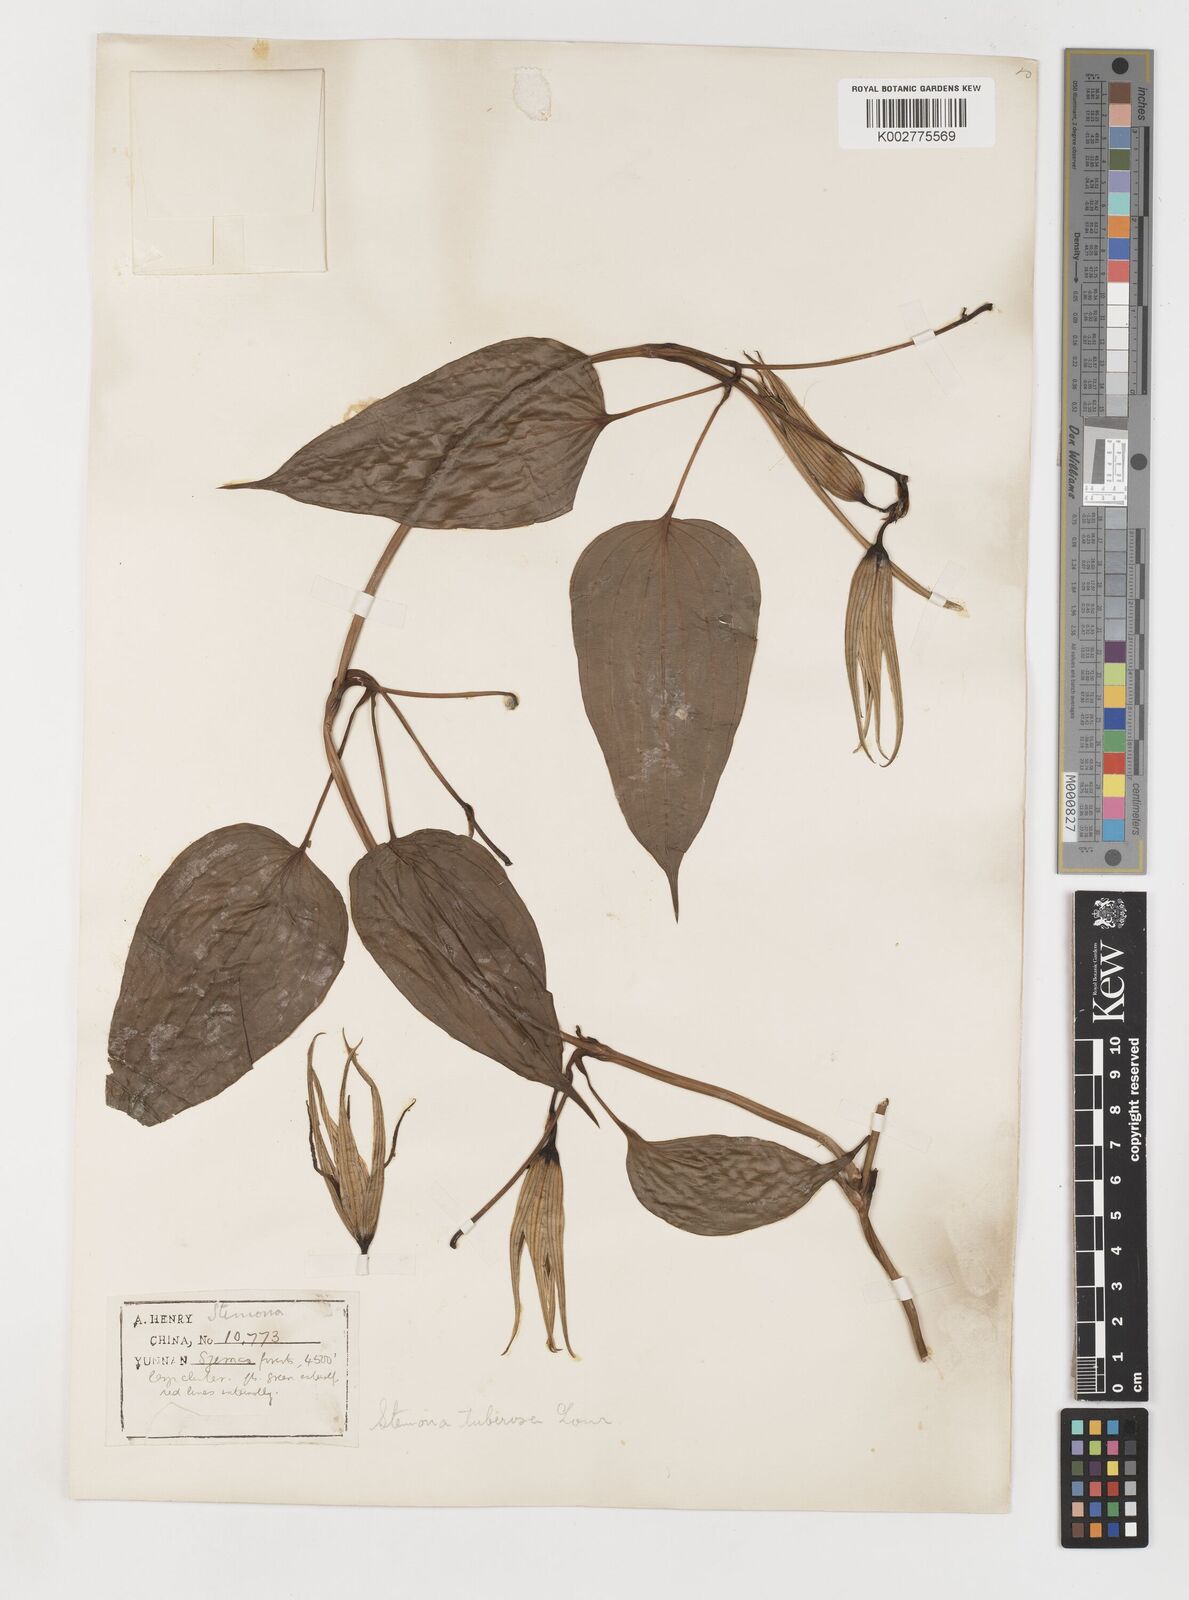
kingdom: Plantae
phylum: Tracheophyta
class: Liliopsida
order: Pandanales
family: Stemonaceae
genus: Stemona
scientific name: Stemona tuberosa
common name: Stemona
